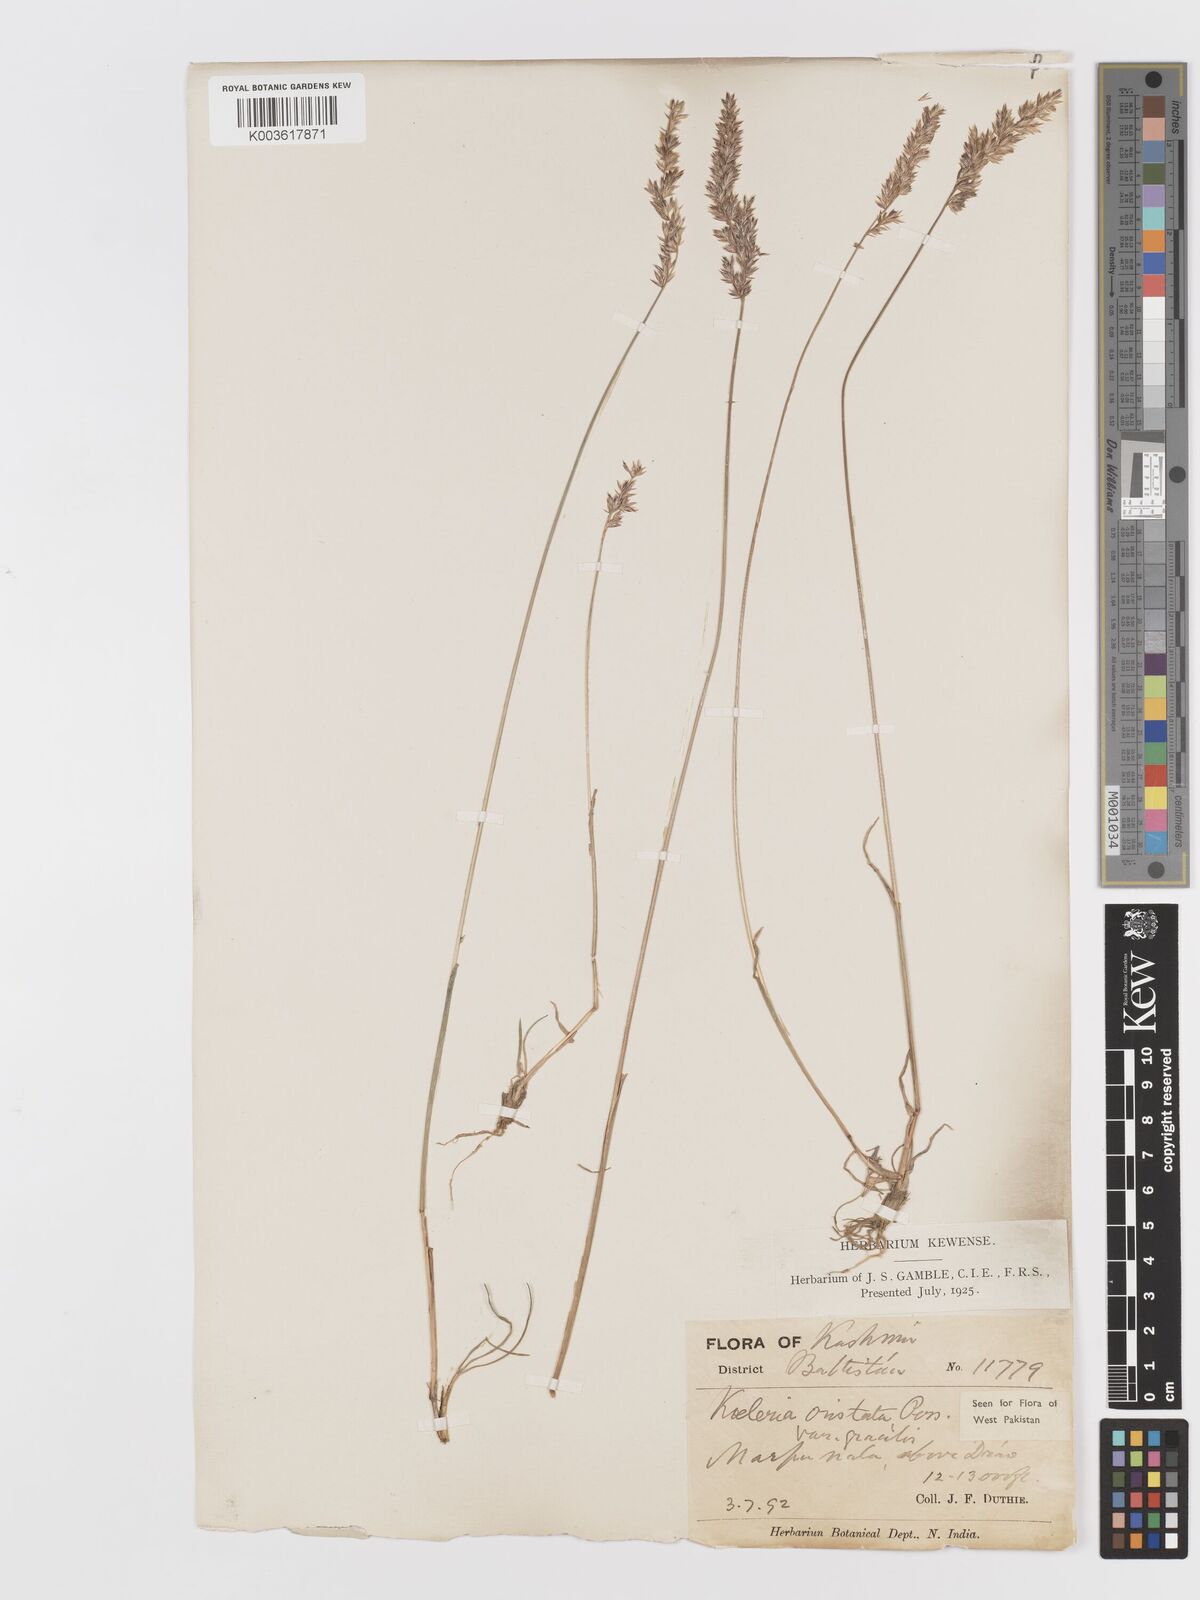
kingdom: Plantae
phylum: Tracheophyta
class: Liliopsida
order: Poales
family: Poaceae
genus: Koeleria
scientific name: Koeleria
